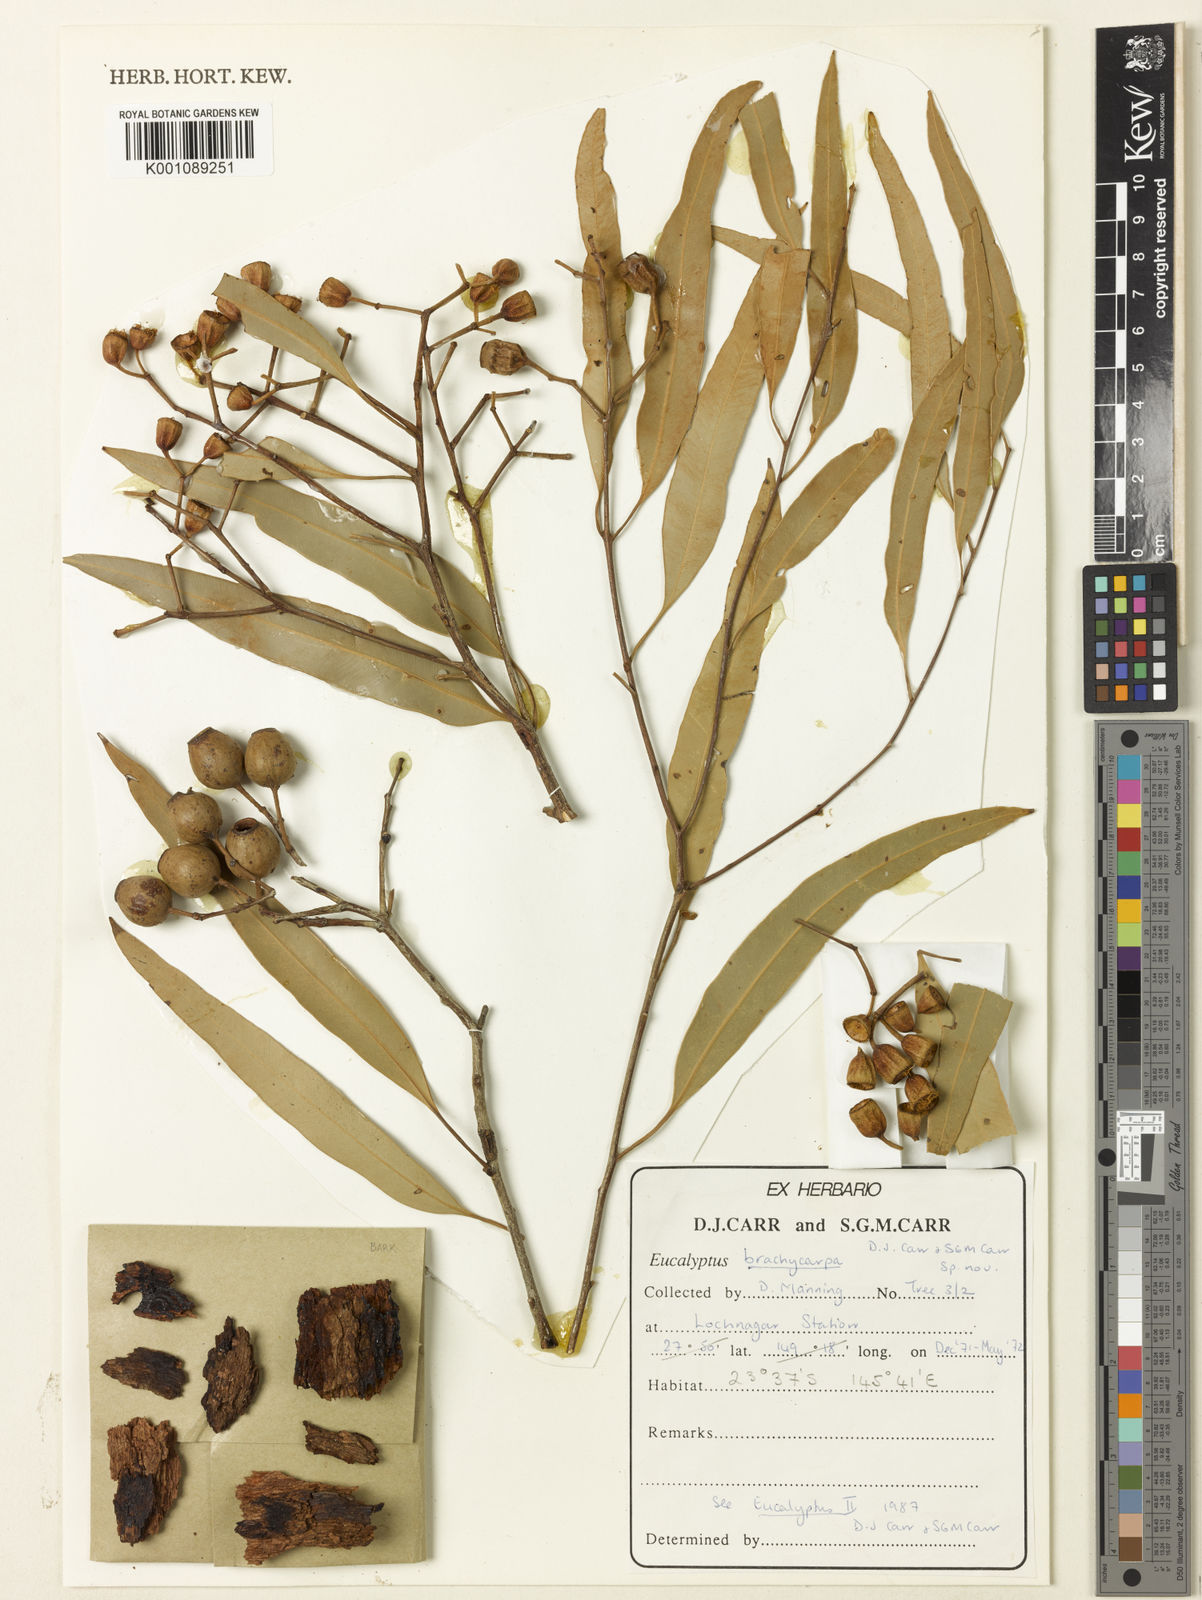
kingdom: Plantae
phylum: Tracheophyta
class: Magnoliopsida
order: Myrtales
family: Myrtaceae
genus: Corymbia
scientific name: Corymbia brachycarpa
